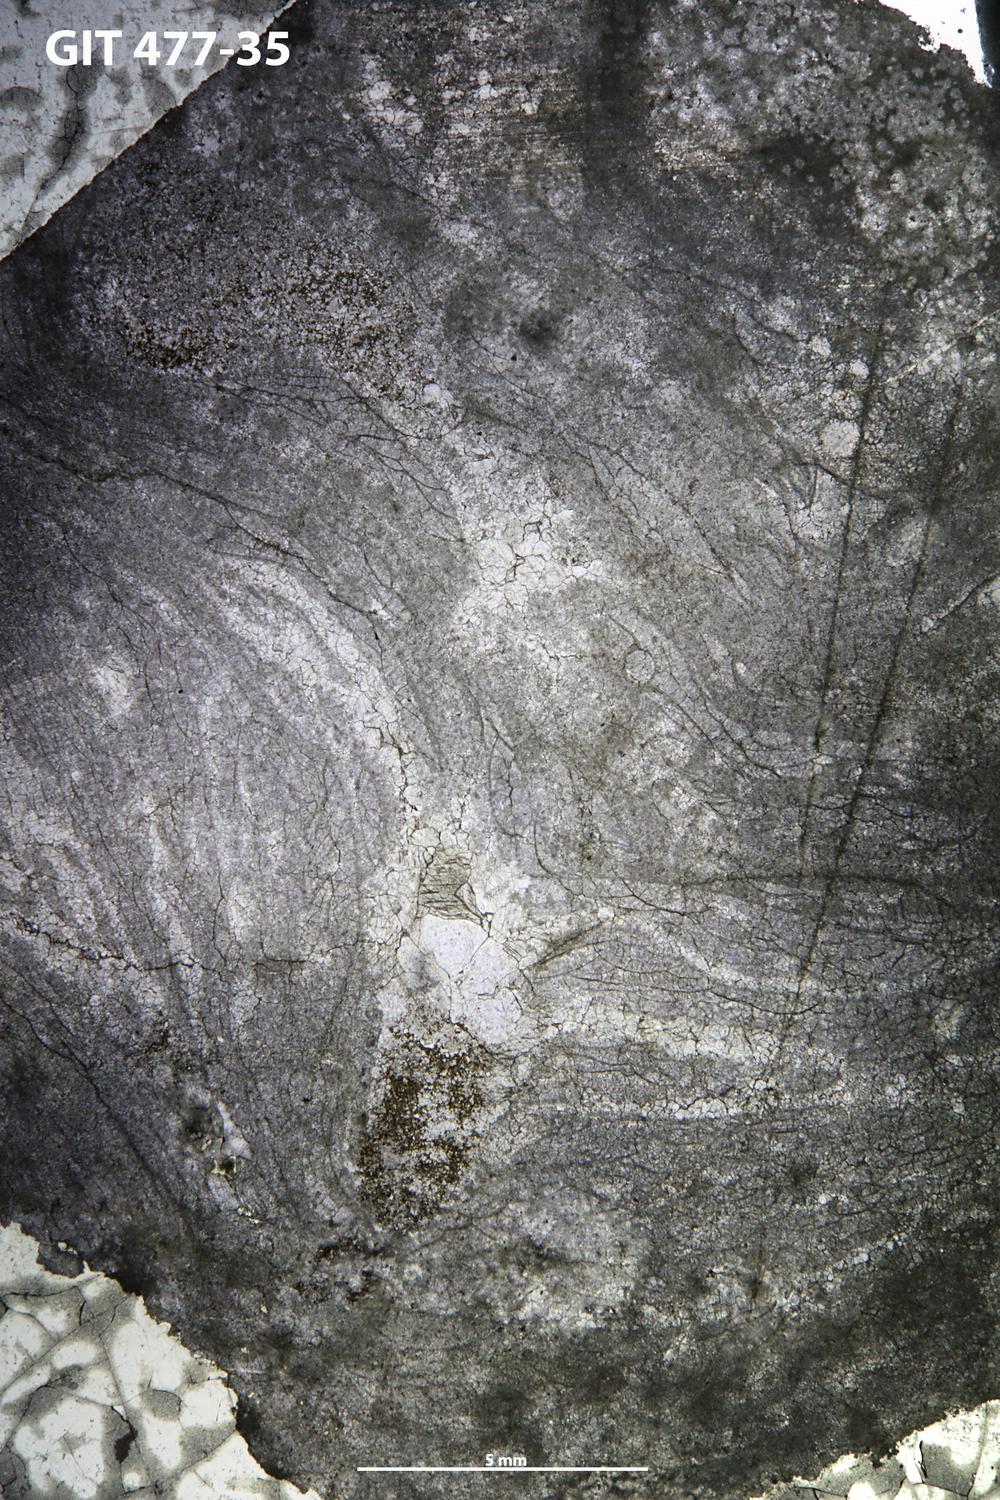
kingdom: Animalia
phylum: Porifera
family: Stylostromatidae
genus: Pachystylostroma
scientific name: Pachystylostroma
